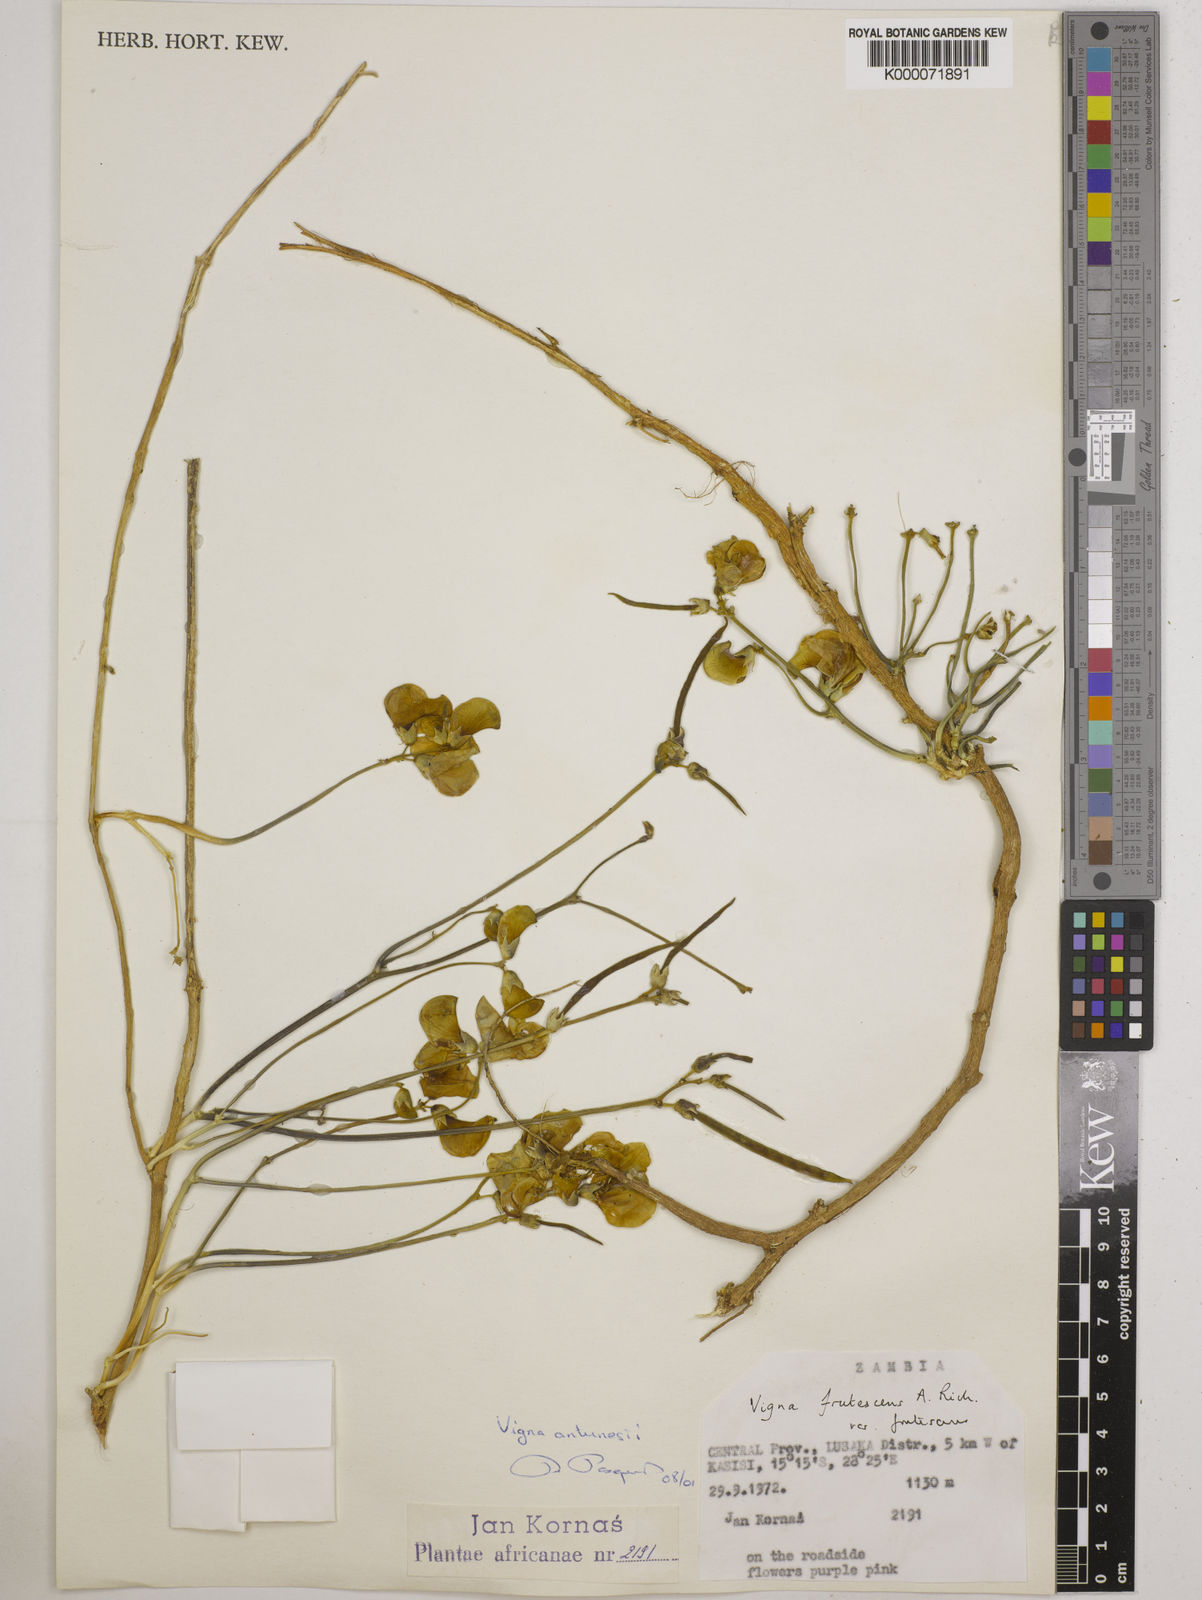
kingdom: Plantae
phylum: Tracheophyta
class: Magnoliopsida
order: Fabales
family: Fabaceae
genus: Vigna
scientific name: Vigna antunesii
